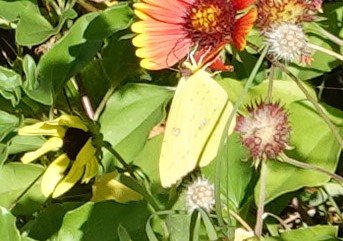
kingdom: Animalia
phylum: Arthropoda
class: Insecta
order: Lepidoptera
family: Pieridae
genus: Phoebis
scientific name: Phoebis sennae
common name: Cloudless Sulphur
